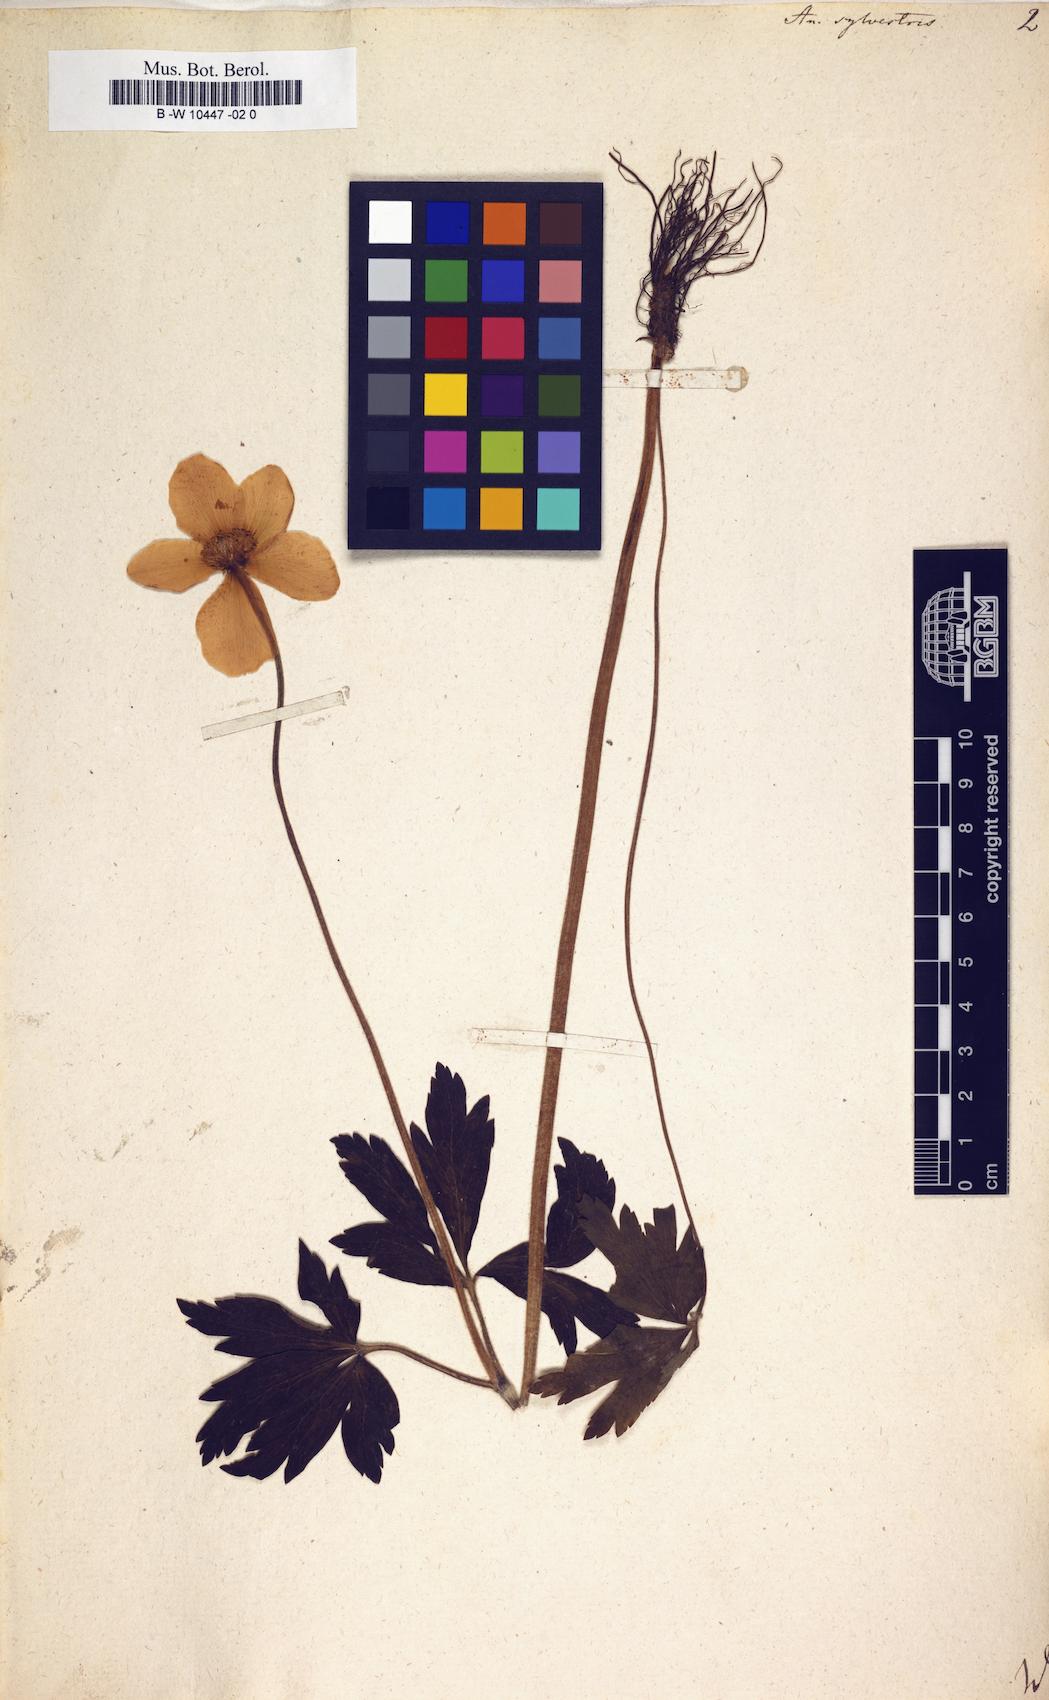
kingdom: Plantae
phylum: Tracheophyta
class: Magnoliopsida
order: Ranunculales
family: Ranunculaceae
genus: Anemone
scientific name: Anemone sylvestris
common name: Snowdrop anemone
